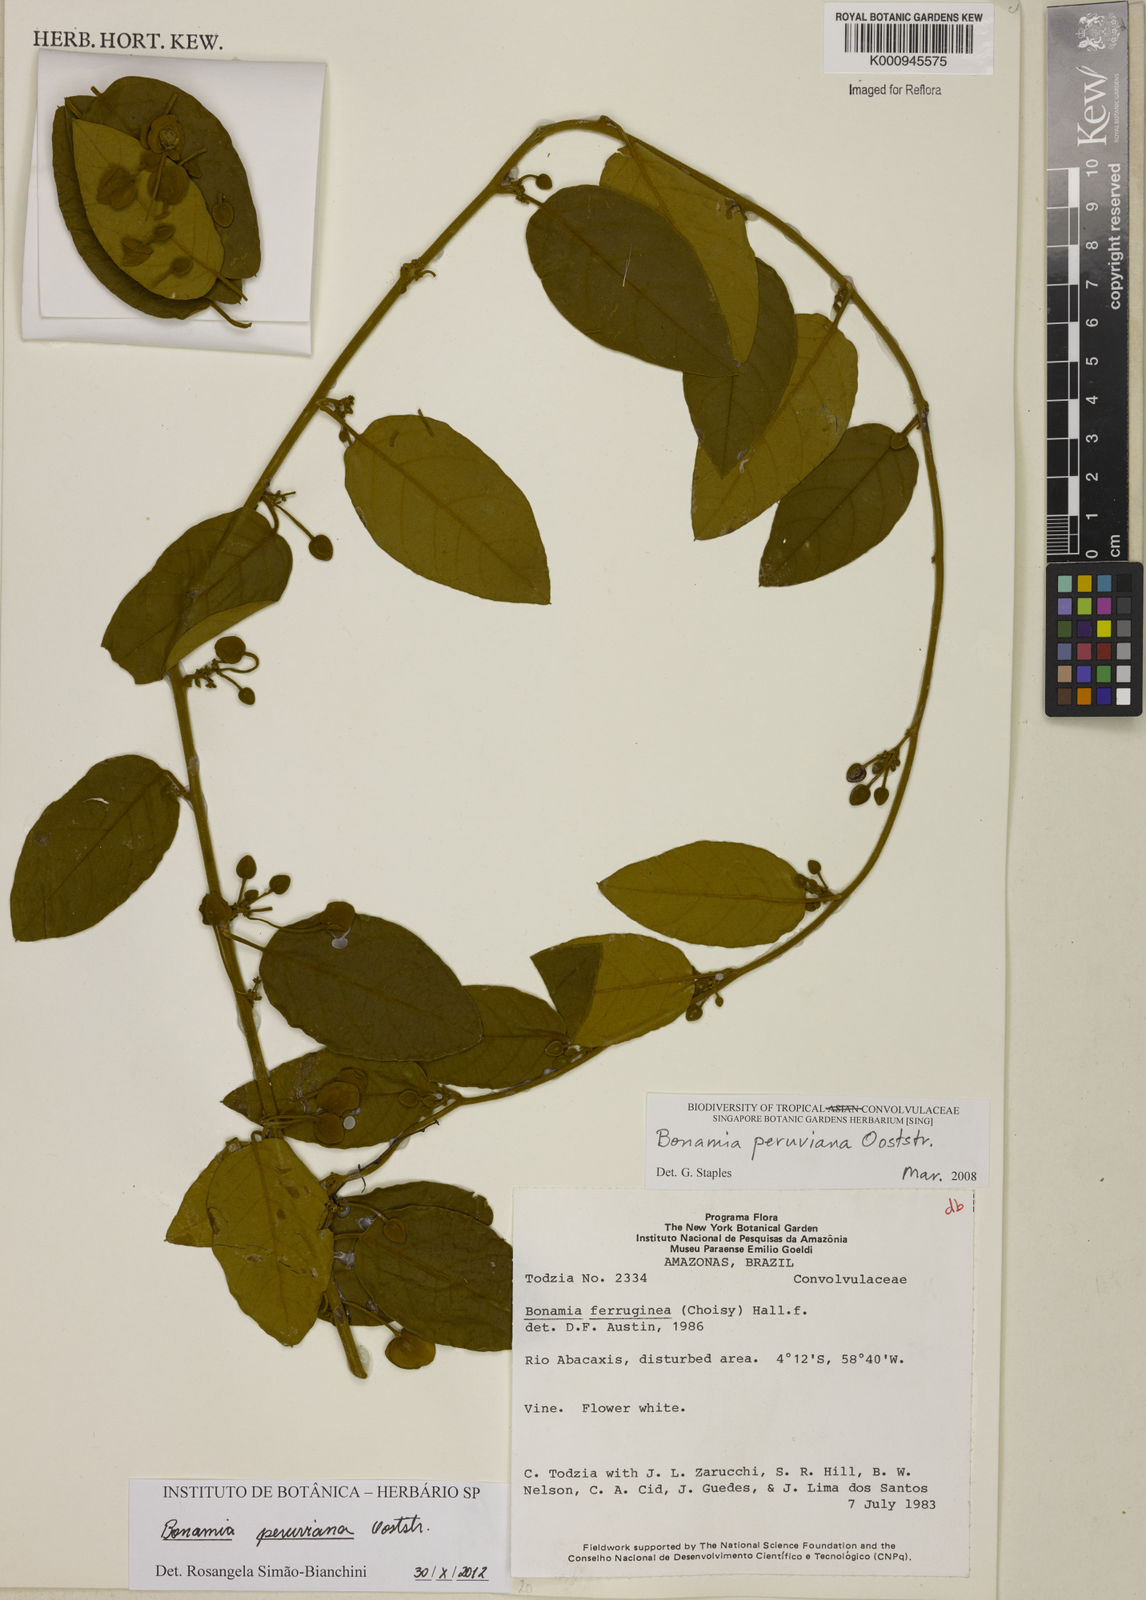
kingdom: Plantae
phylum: Tracheophyta
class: Magnoliopsida
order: Solanales
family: Convolvulaceae
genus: Bonamia
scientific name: Bonamia peruviana
